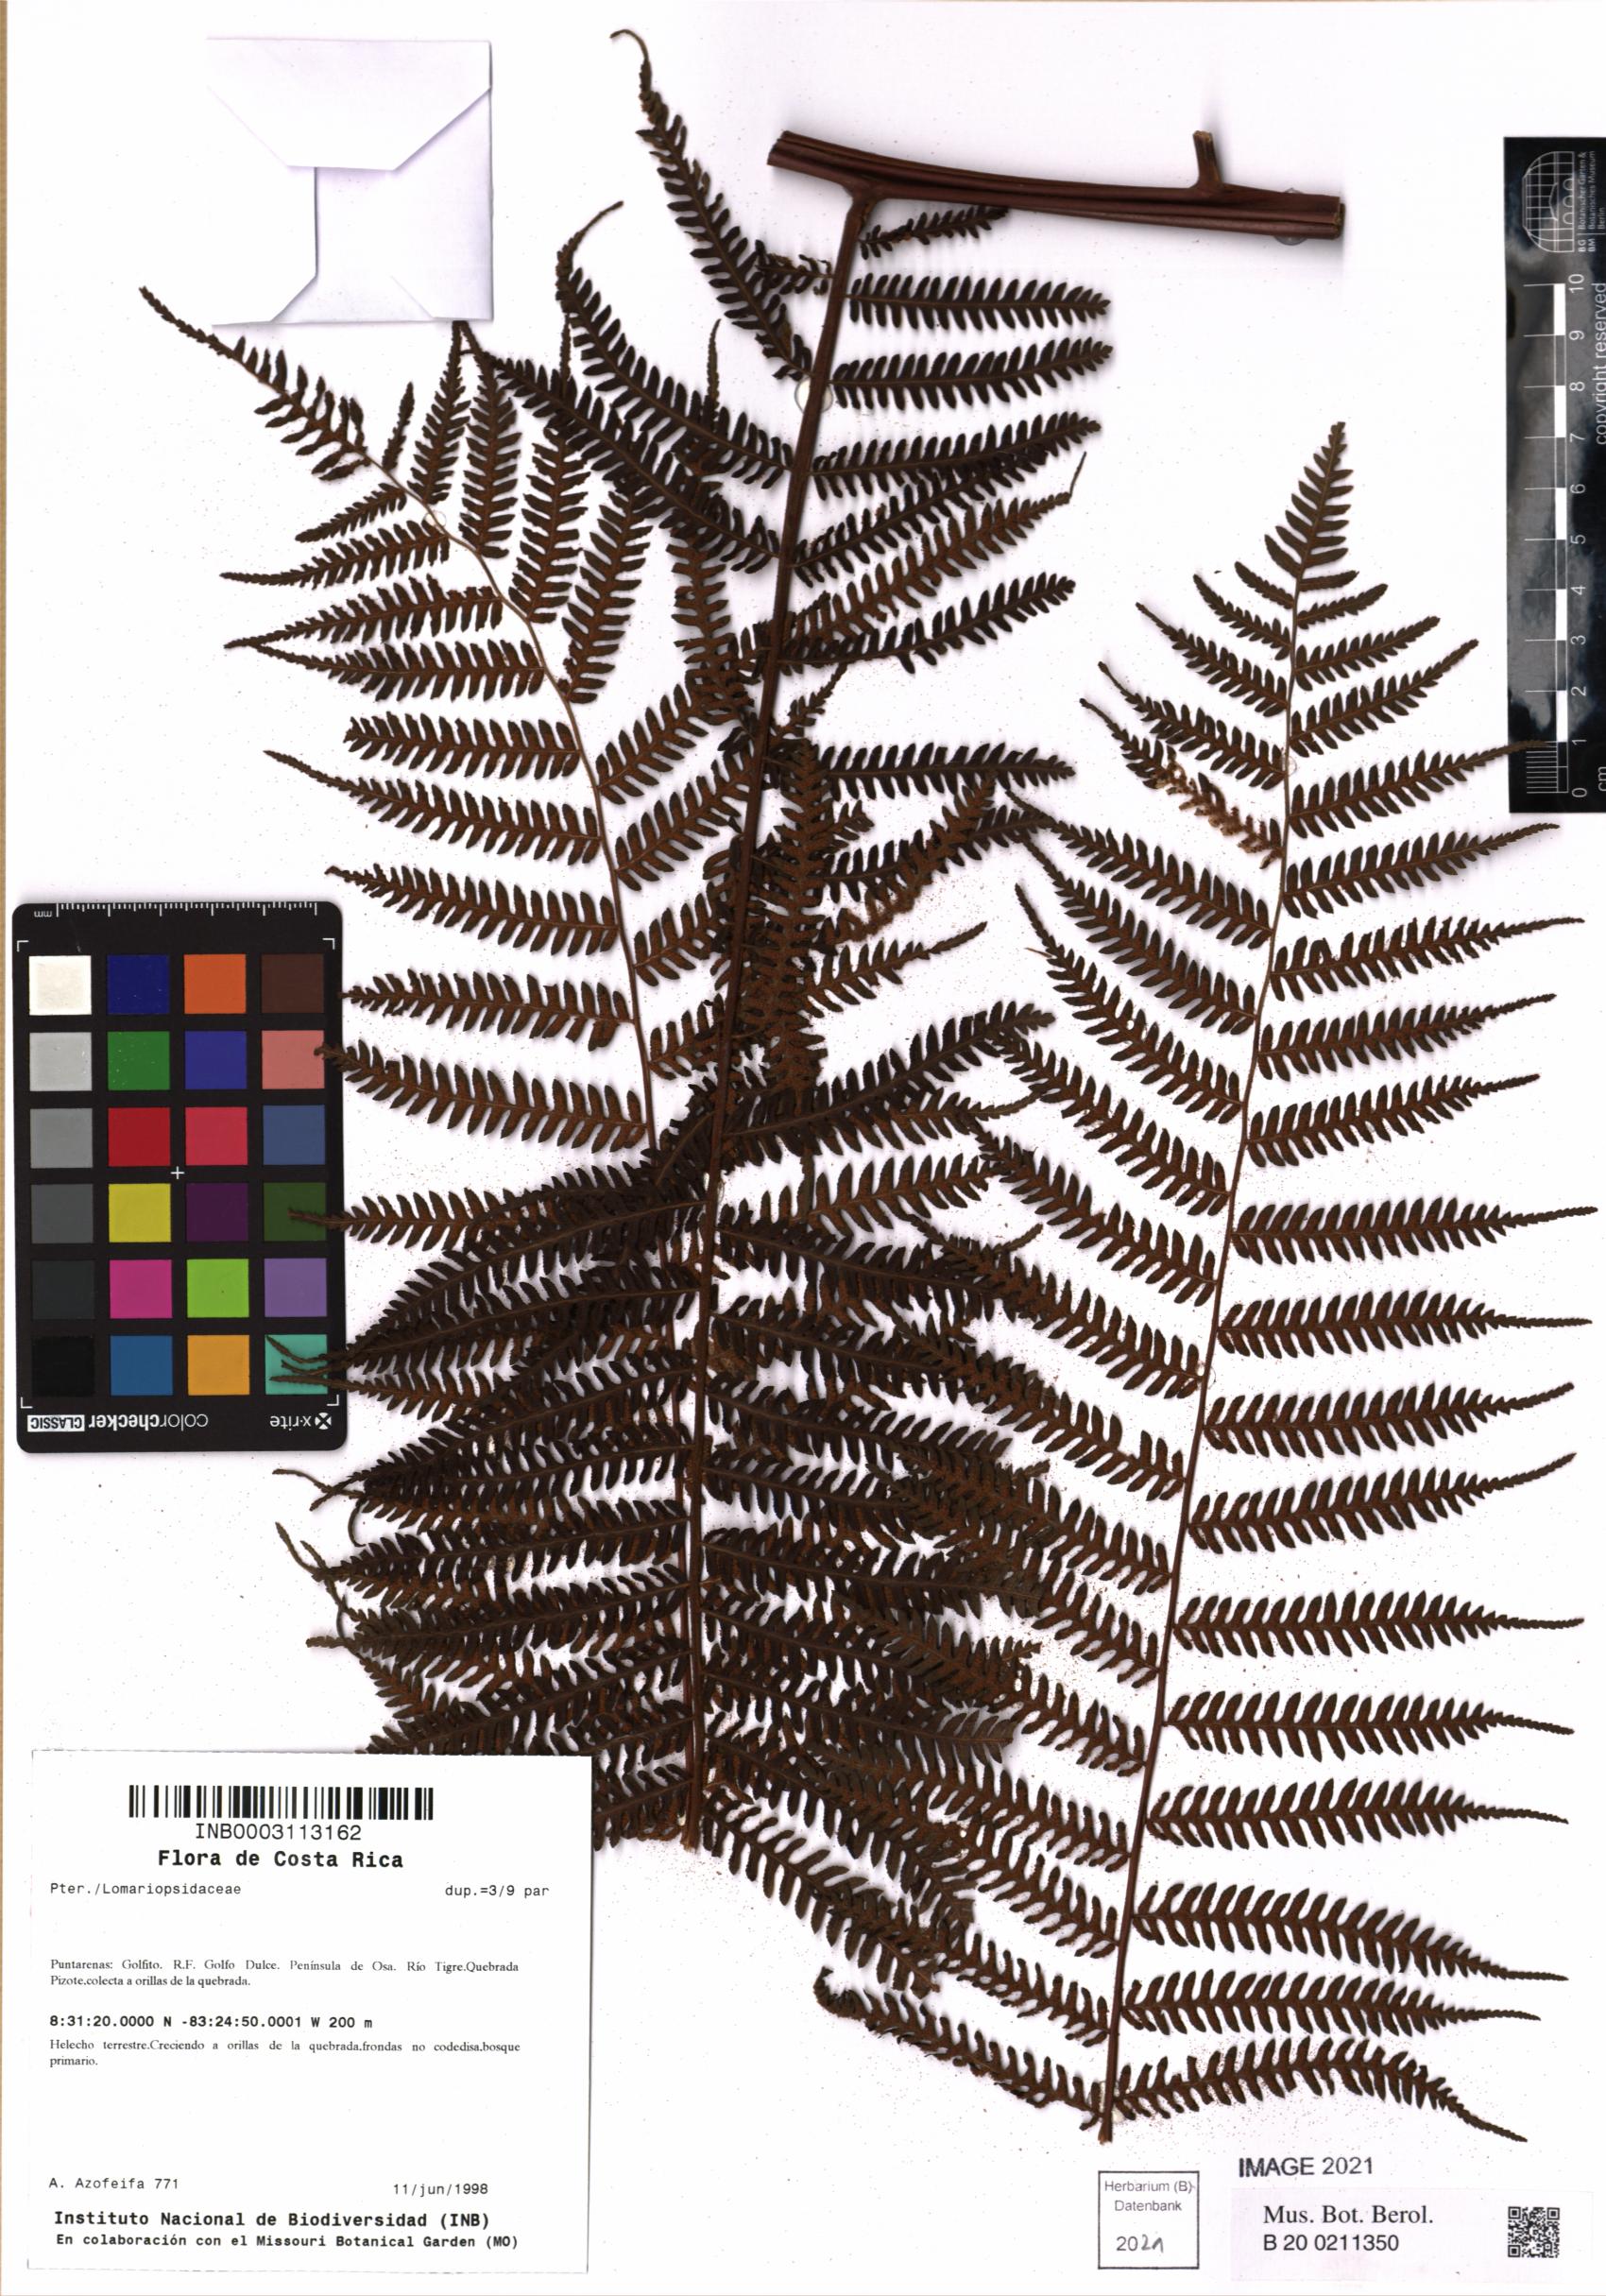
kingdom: Plantae
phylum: Tracheophyta
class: Polypodiopsida
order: Polypodiales
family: Lomariopsidaceae
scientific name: Lomariopsidaceae
